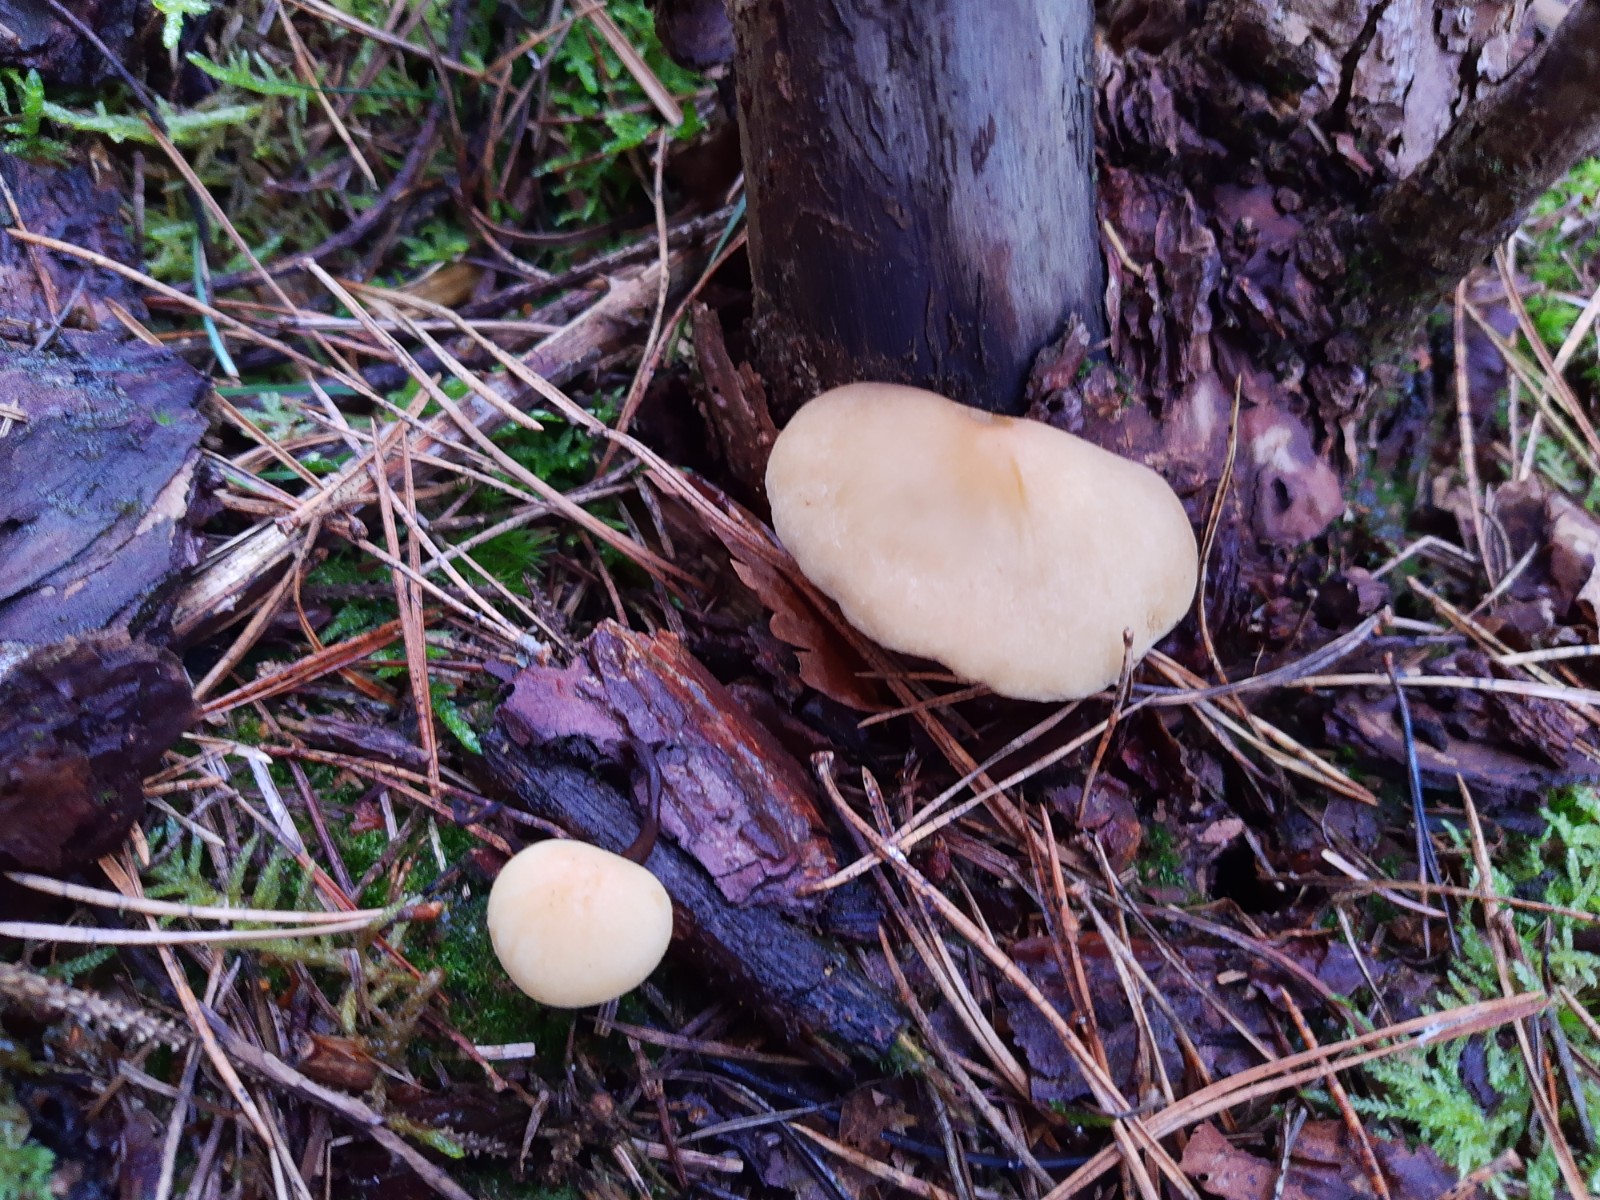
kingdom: Fungi
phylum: Basidiomycota
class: Agaricomycetes
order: Agaricales
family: Strophariaceae
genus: Hypholoma
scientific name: Hypholoma capnoides
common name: gran-svovlhat
